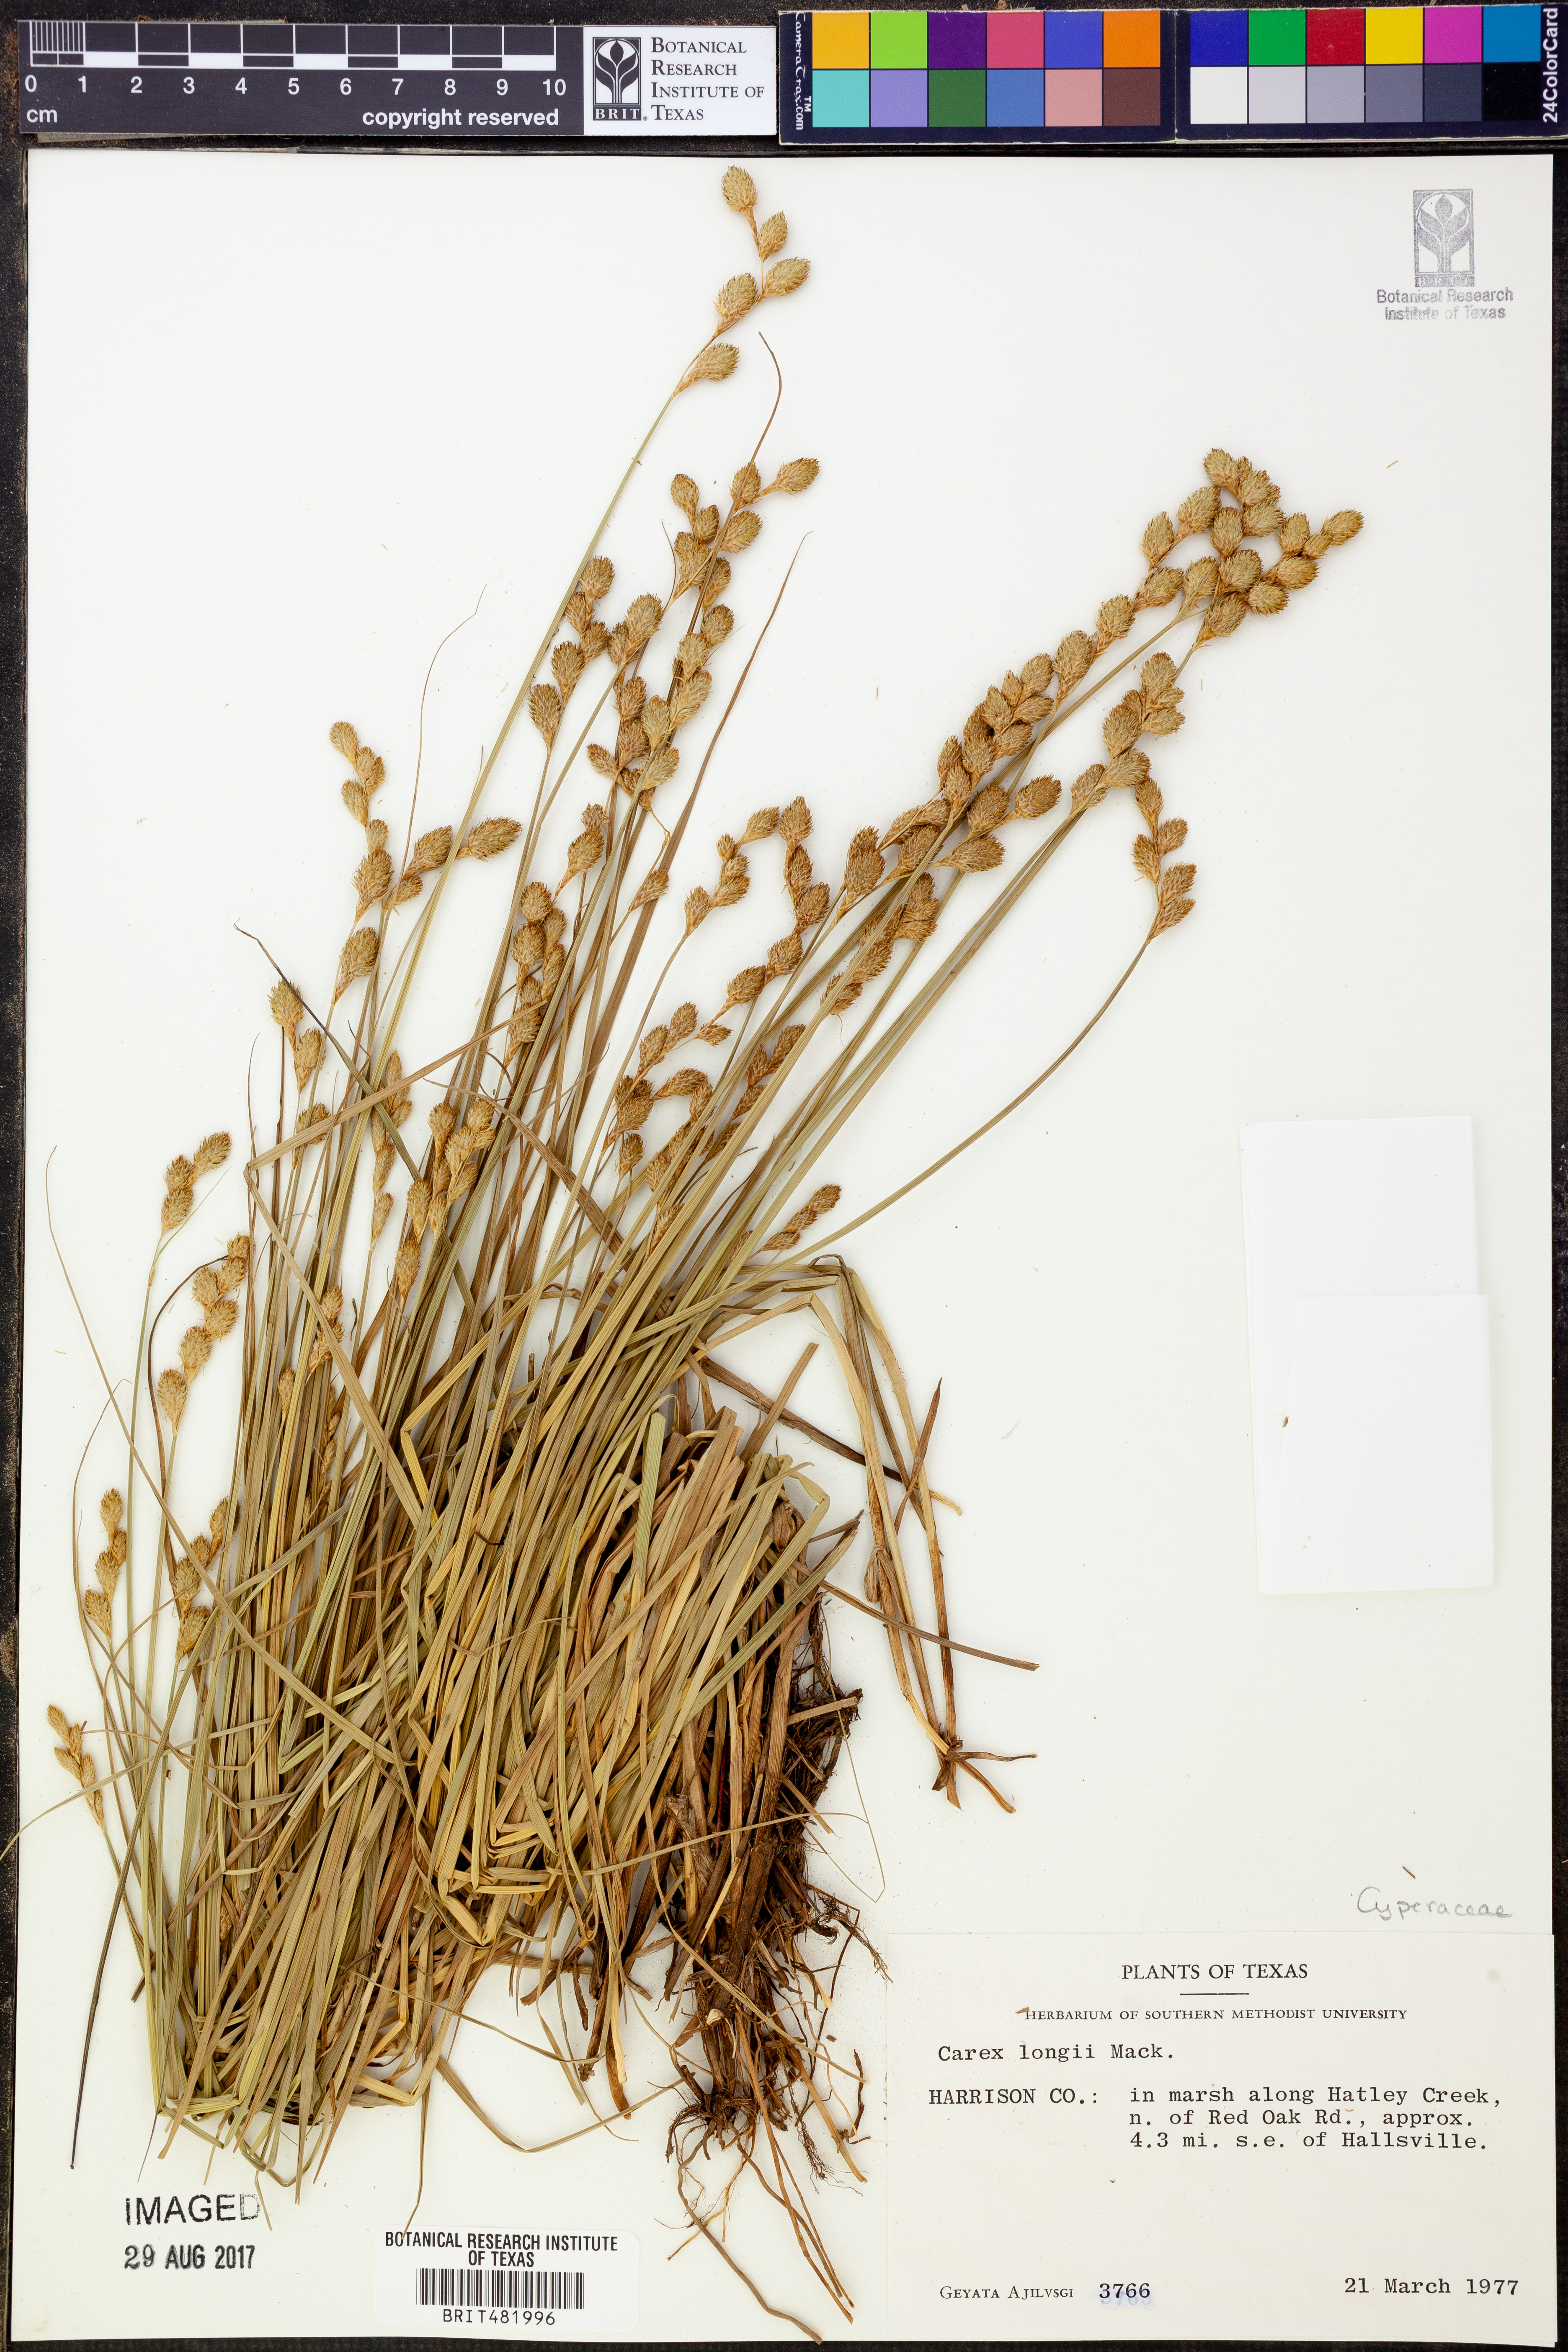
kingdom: Plantae
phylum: Tracheophyta
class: Liliopsida
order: Poales
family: Cyperaceae
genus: Carex
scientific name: Carex longii
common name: Long's sedge
